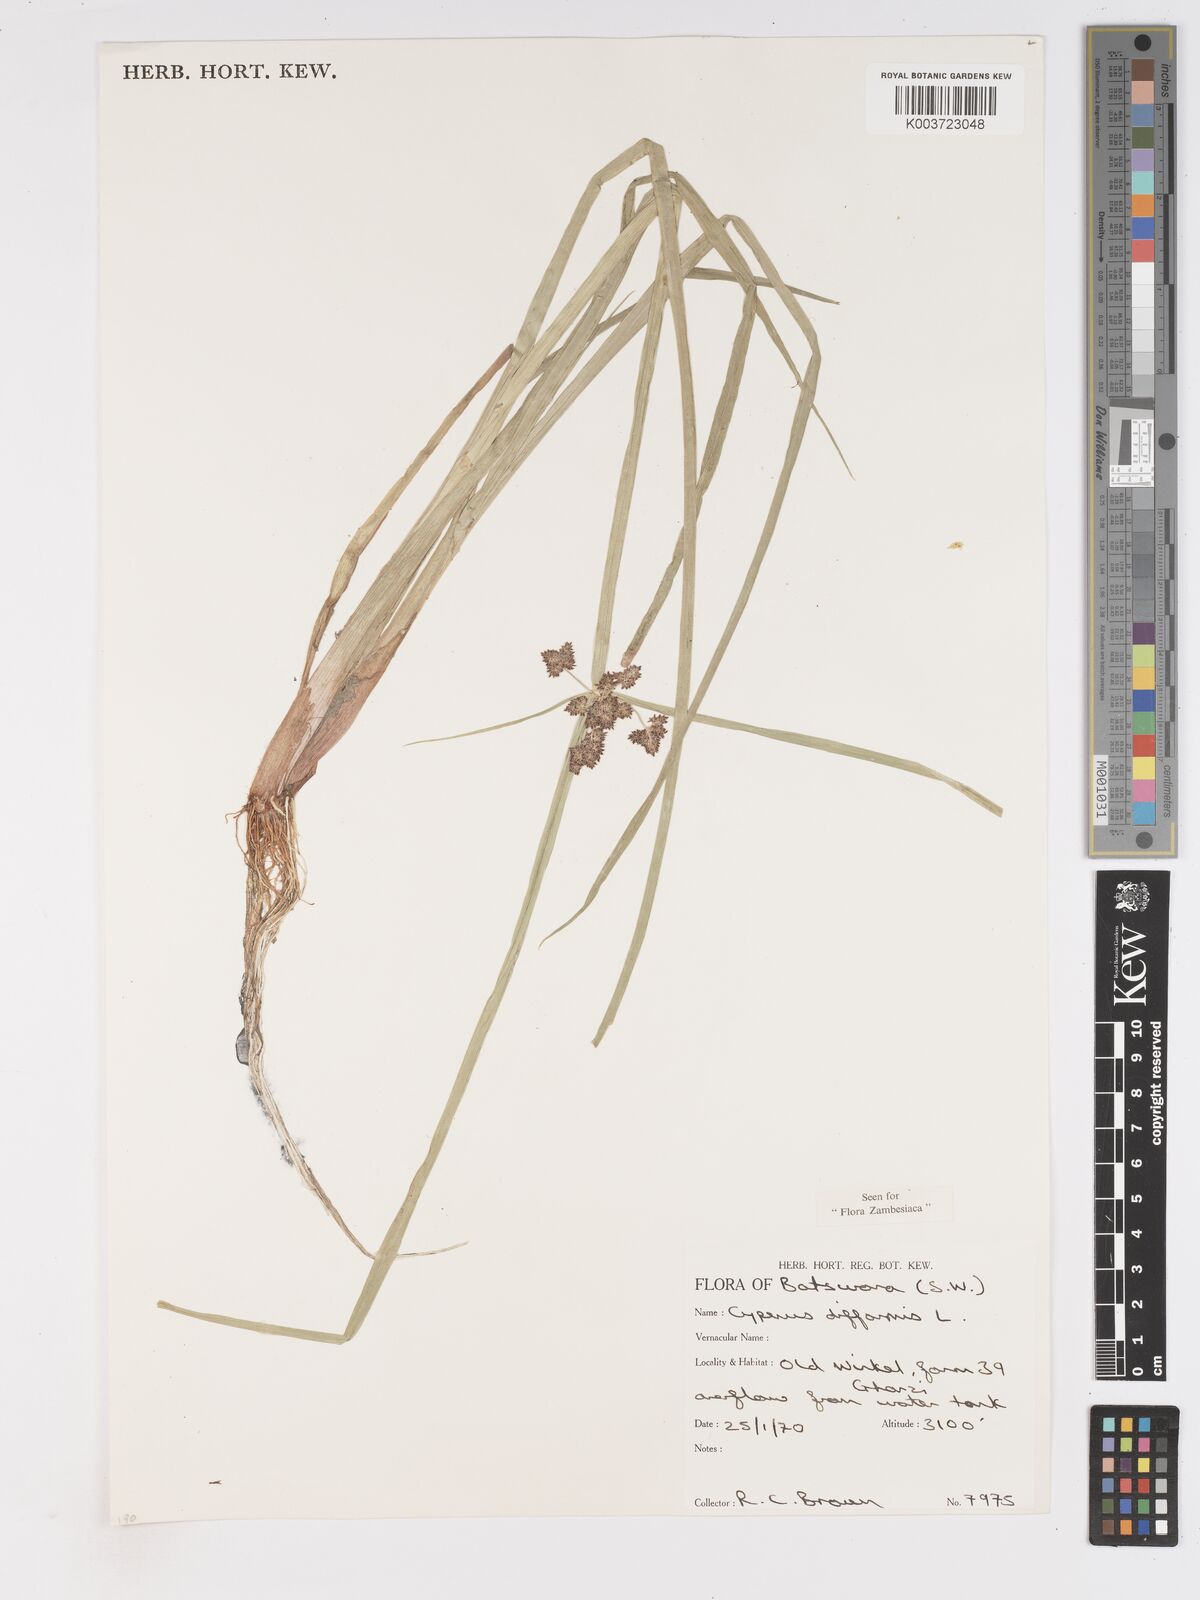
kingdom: Plantae
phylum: Tracheophyta
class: Liliopsida
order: Poales
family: Cyperaceae
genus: Cyperus
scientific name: Cyperus difformis
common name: Variable flatsedge
